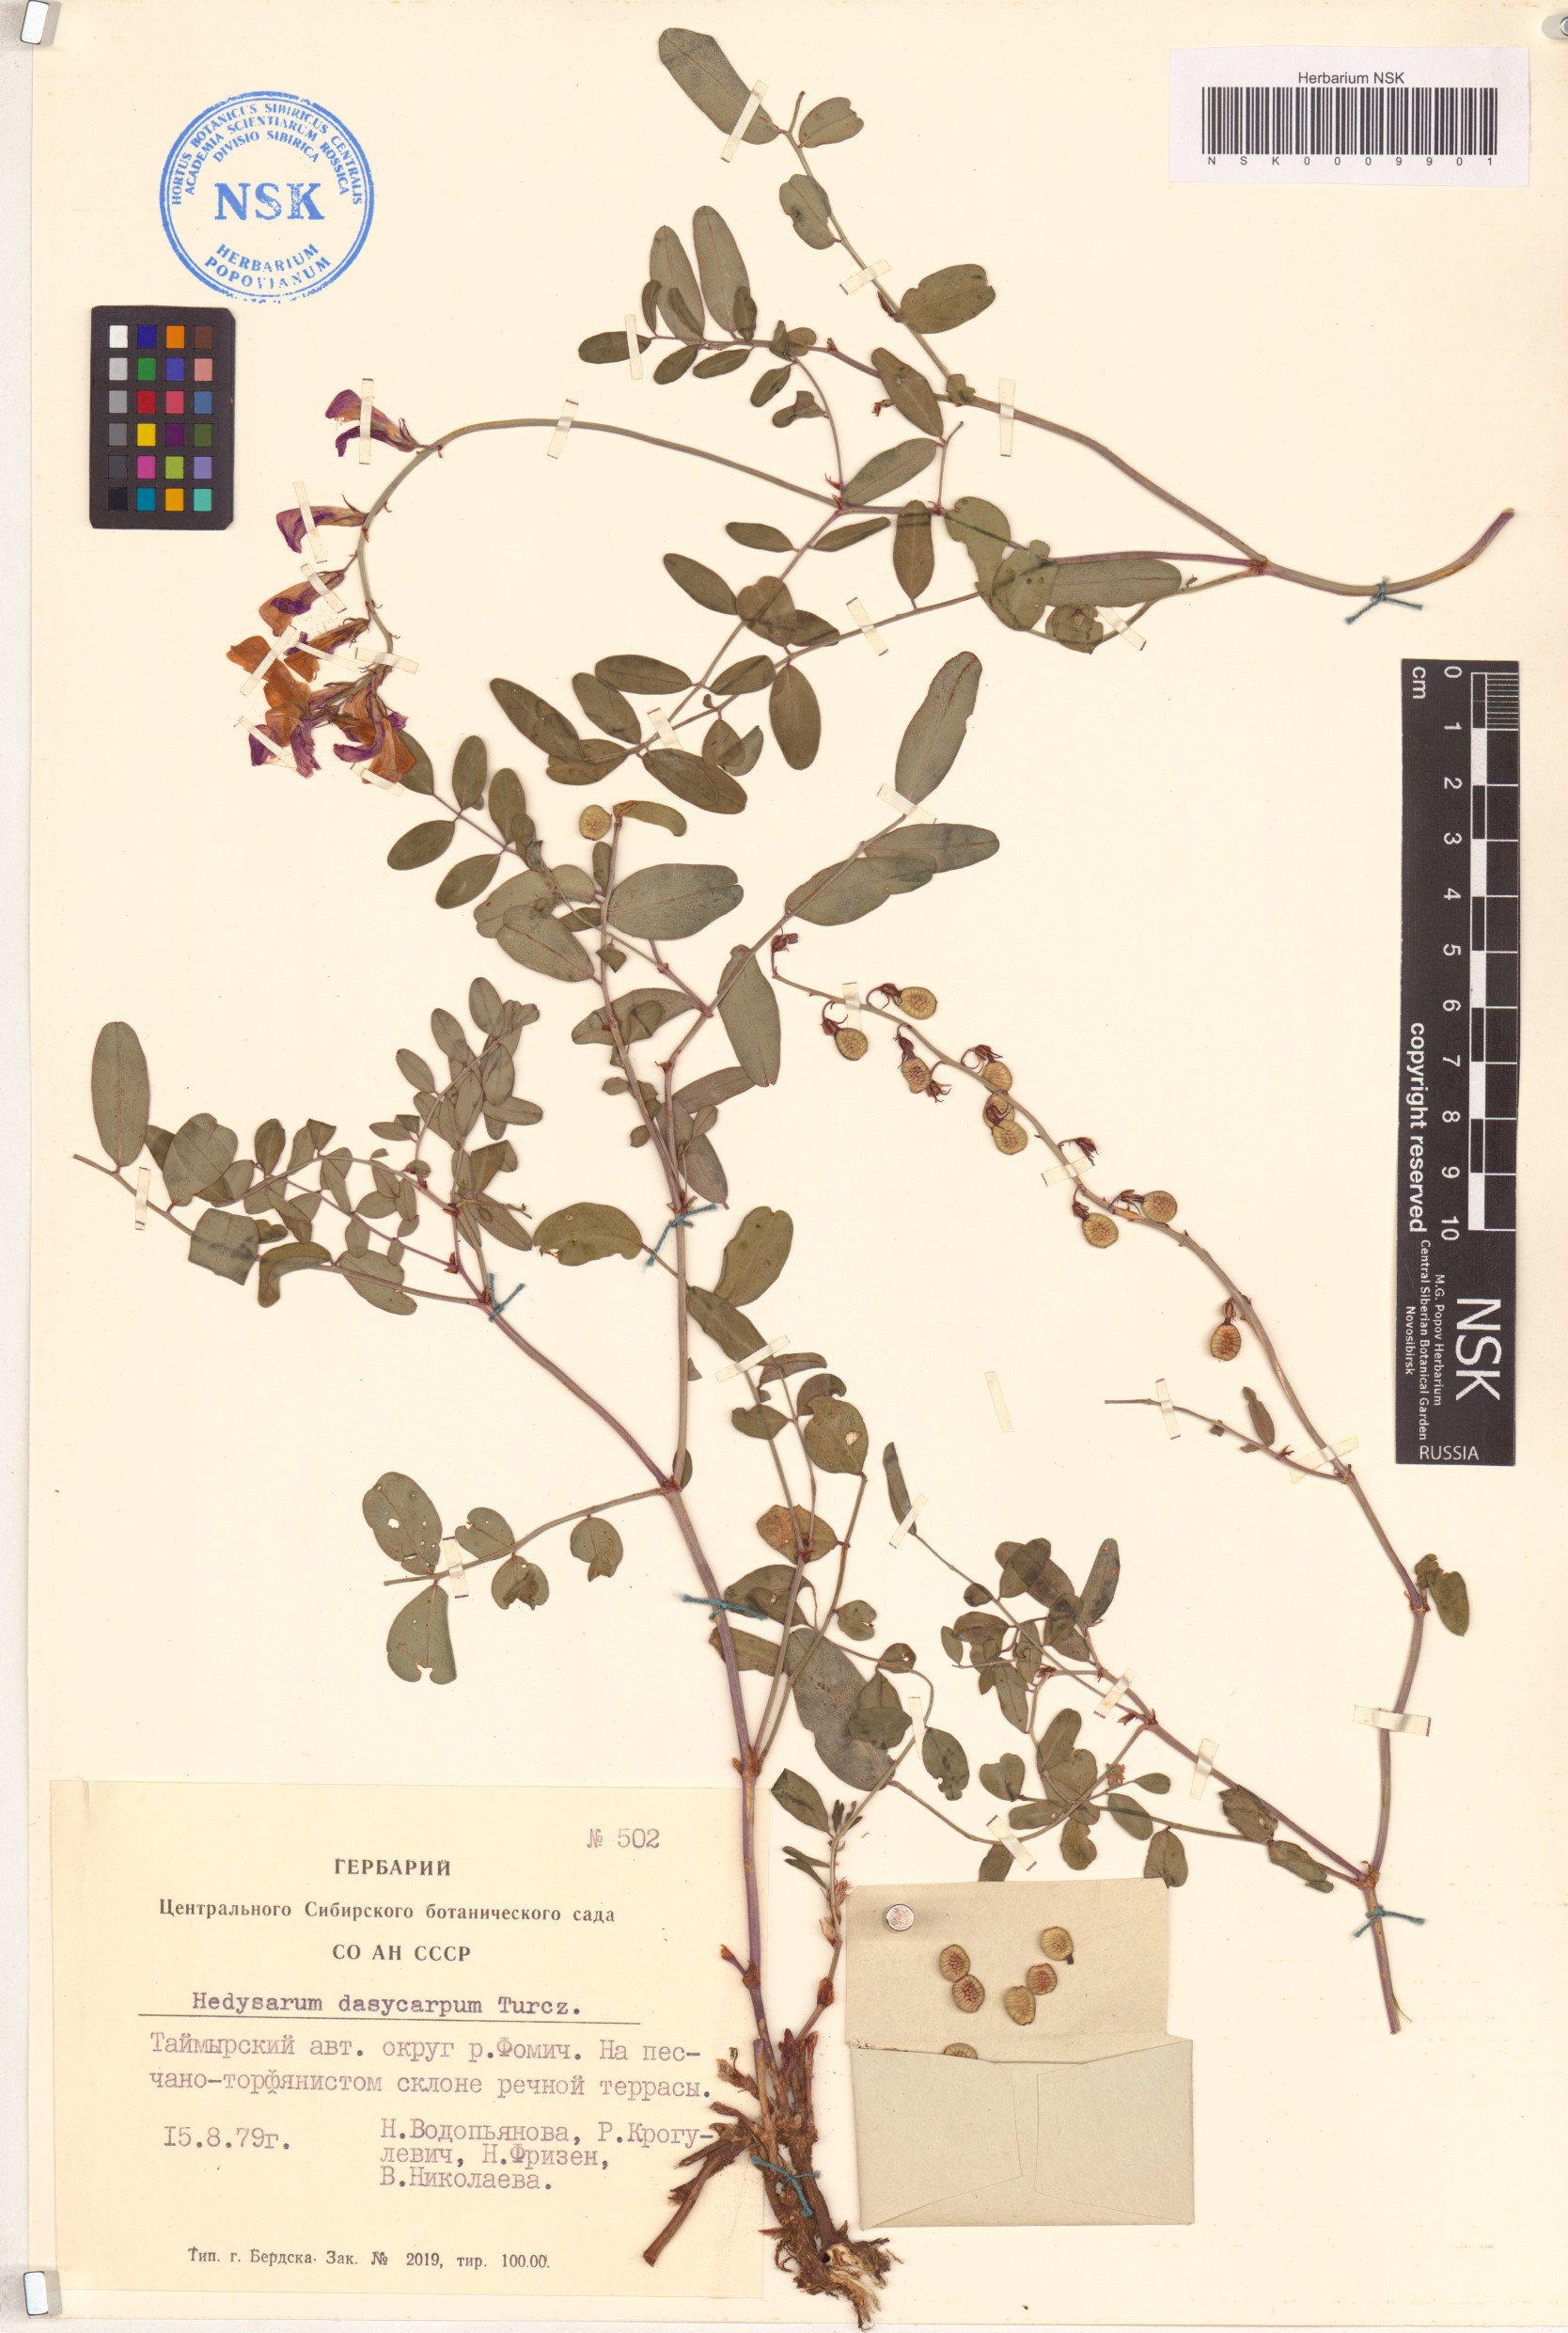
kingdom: Plantae
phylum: Tracheophyta
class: Magnoliopsida
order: Fabales
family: Fabaceae
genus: Hedysarum
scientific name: Hedysarum dasycarpum
